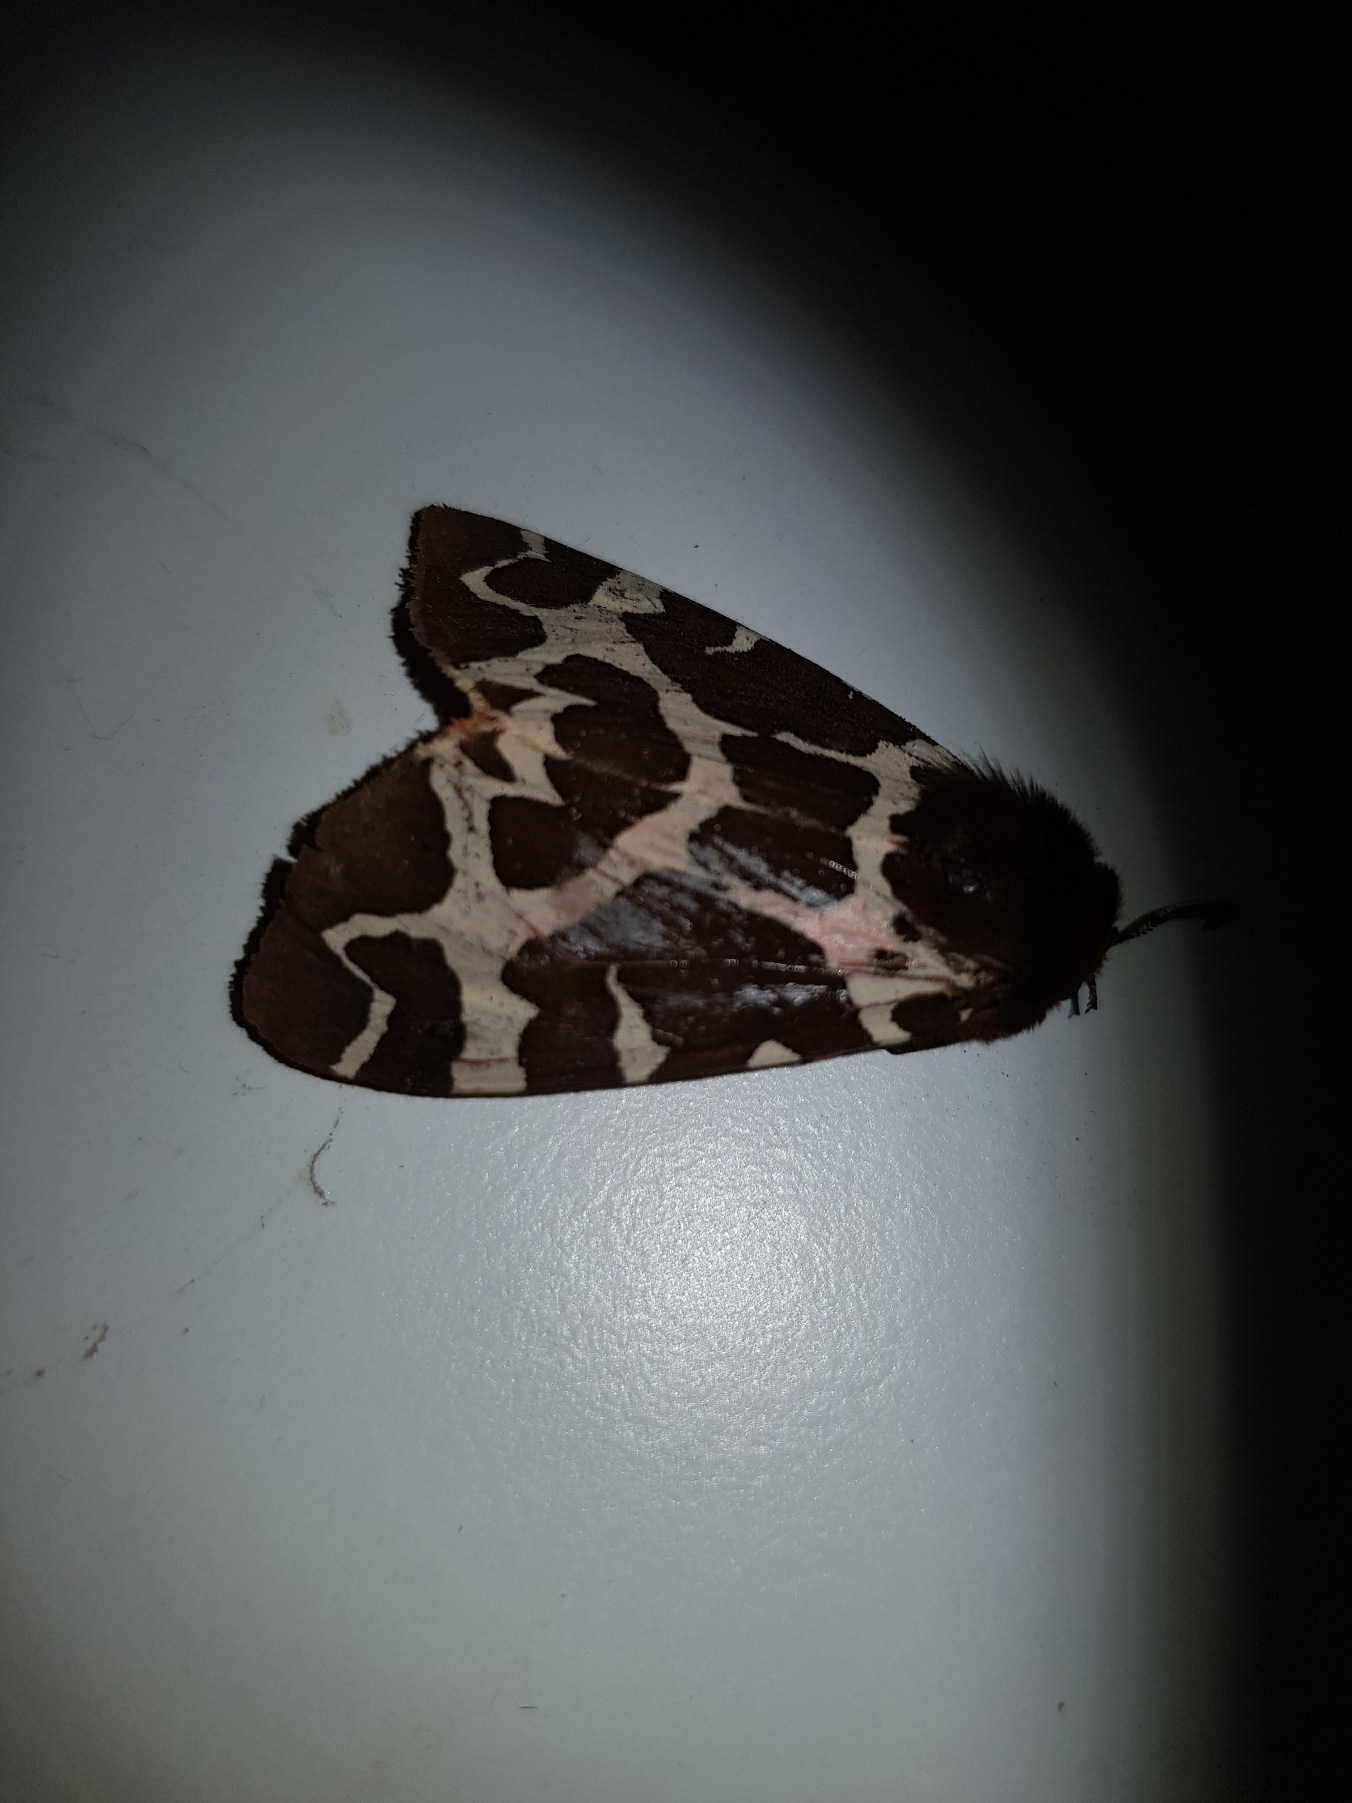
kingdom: Animalia
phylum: Arthropoda
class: Insecta
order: Lepidoptera
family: Erebidae
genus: Arctia
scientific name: Arctia caja
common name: Brun bjørn
